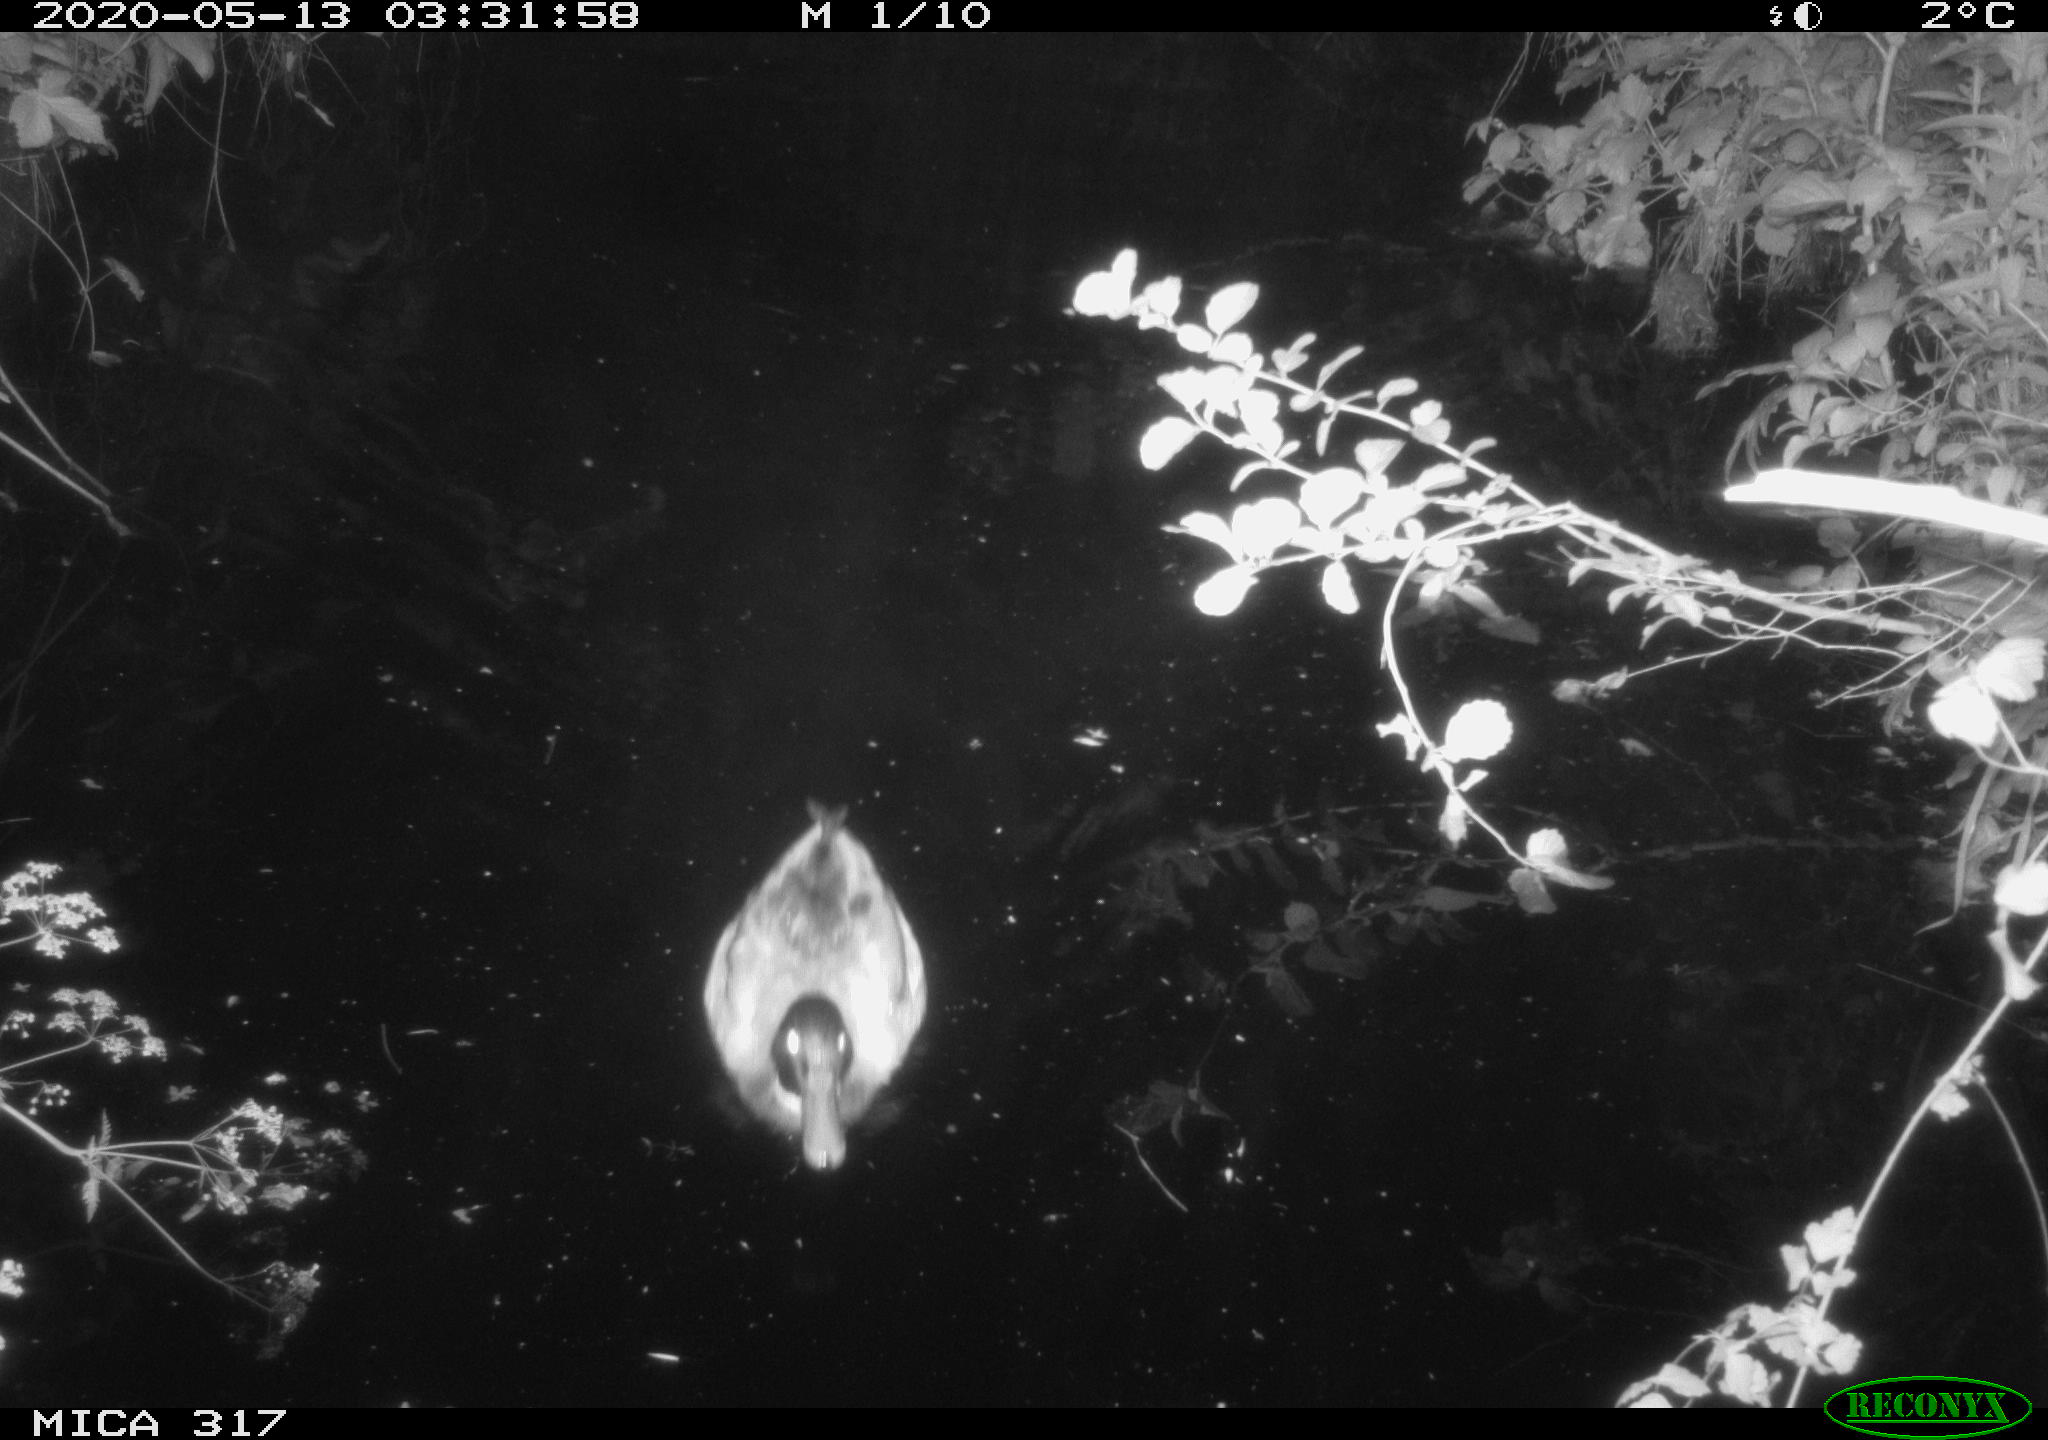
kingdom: Animalia
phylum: Chordata
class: Aves
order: Anseriformes
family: Anatidae
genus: Anas
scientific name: Anas platyrhynchos
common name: Mallard
